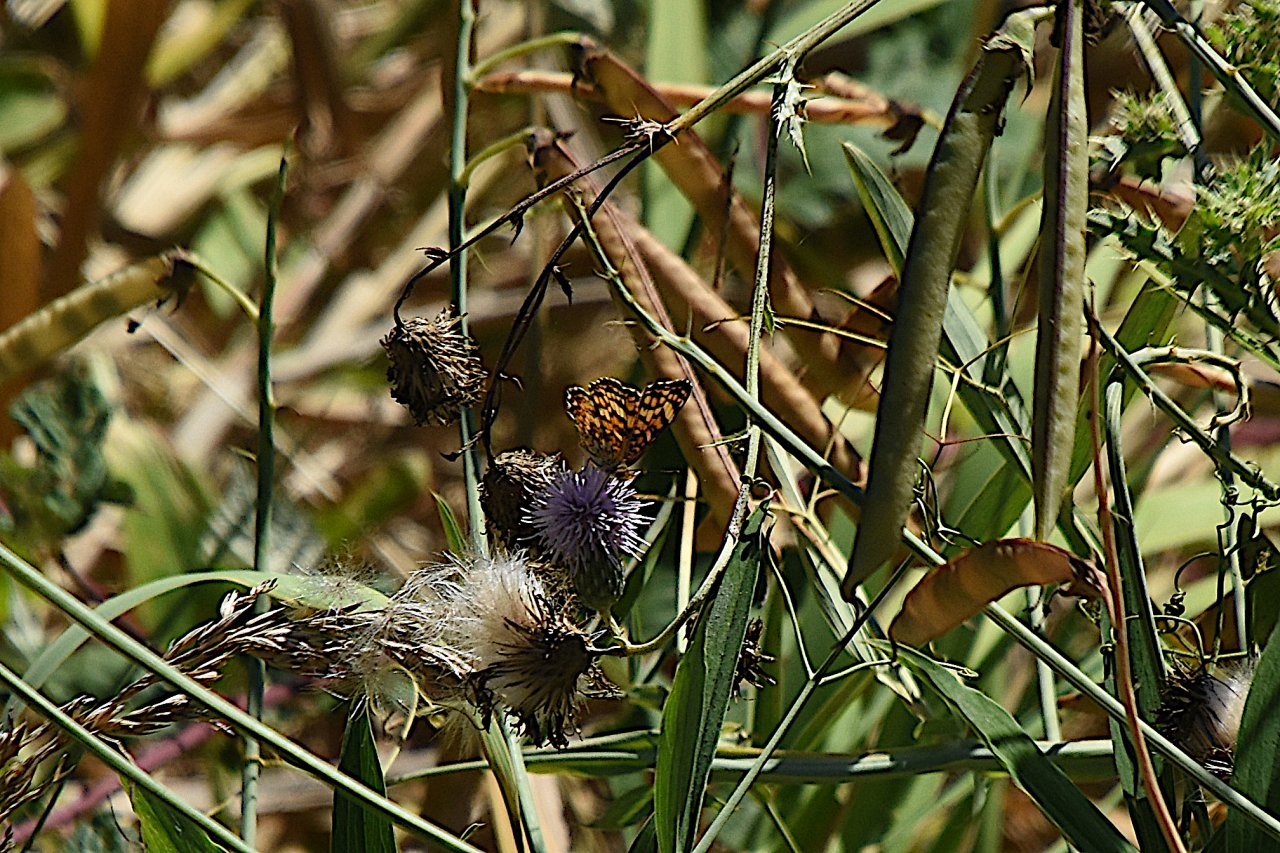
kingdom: Animalia
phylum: Arthropoda
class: Insecta
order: Lepidoptera
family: Nymphalidae
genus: Eresia
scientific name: Eresia aveyrona
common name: Mylitta Crescent
